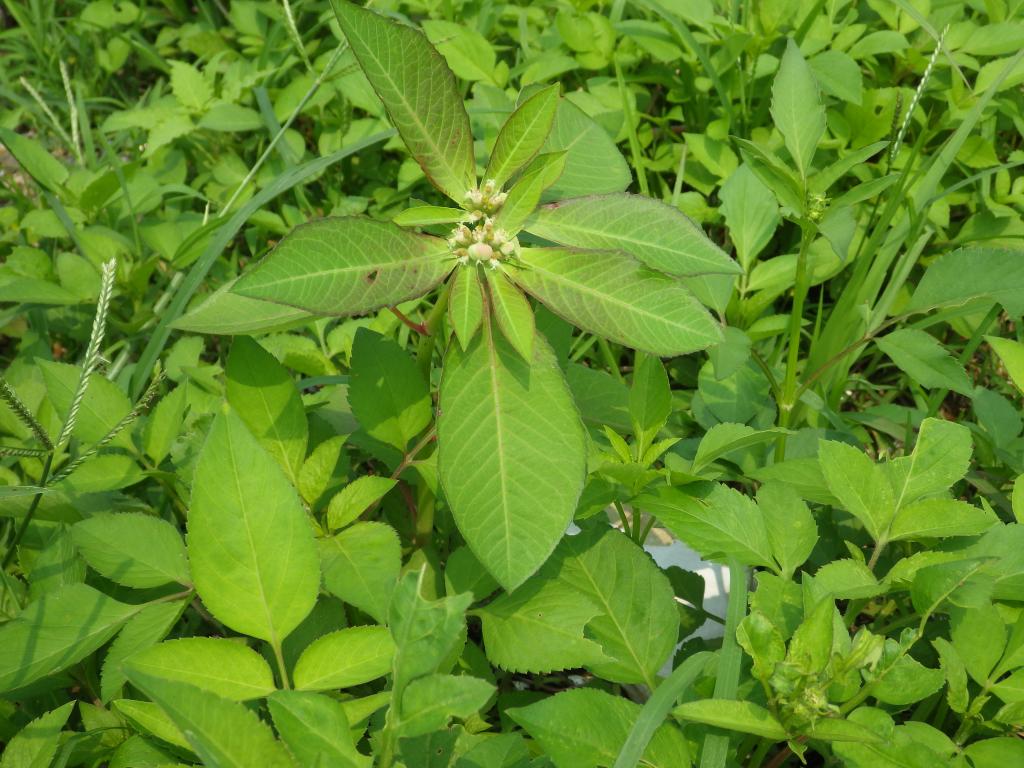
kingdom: Plantae
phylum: Tracheophyta
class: Magnoliopsida
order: Malpighiales
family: Euphorbiaceae
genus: Euphorbia
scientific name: Euphorbia heterophylla
